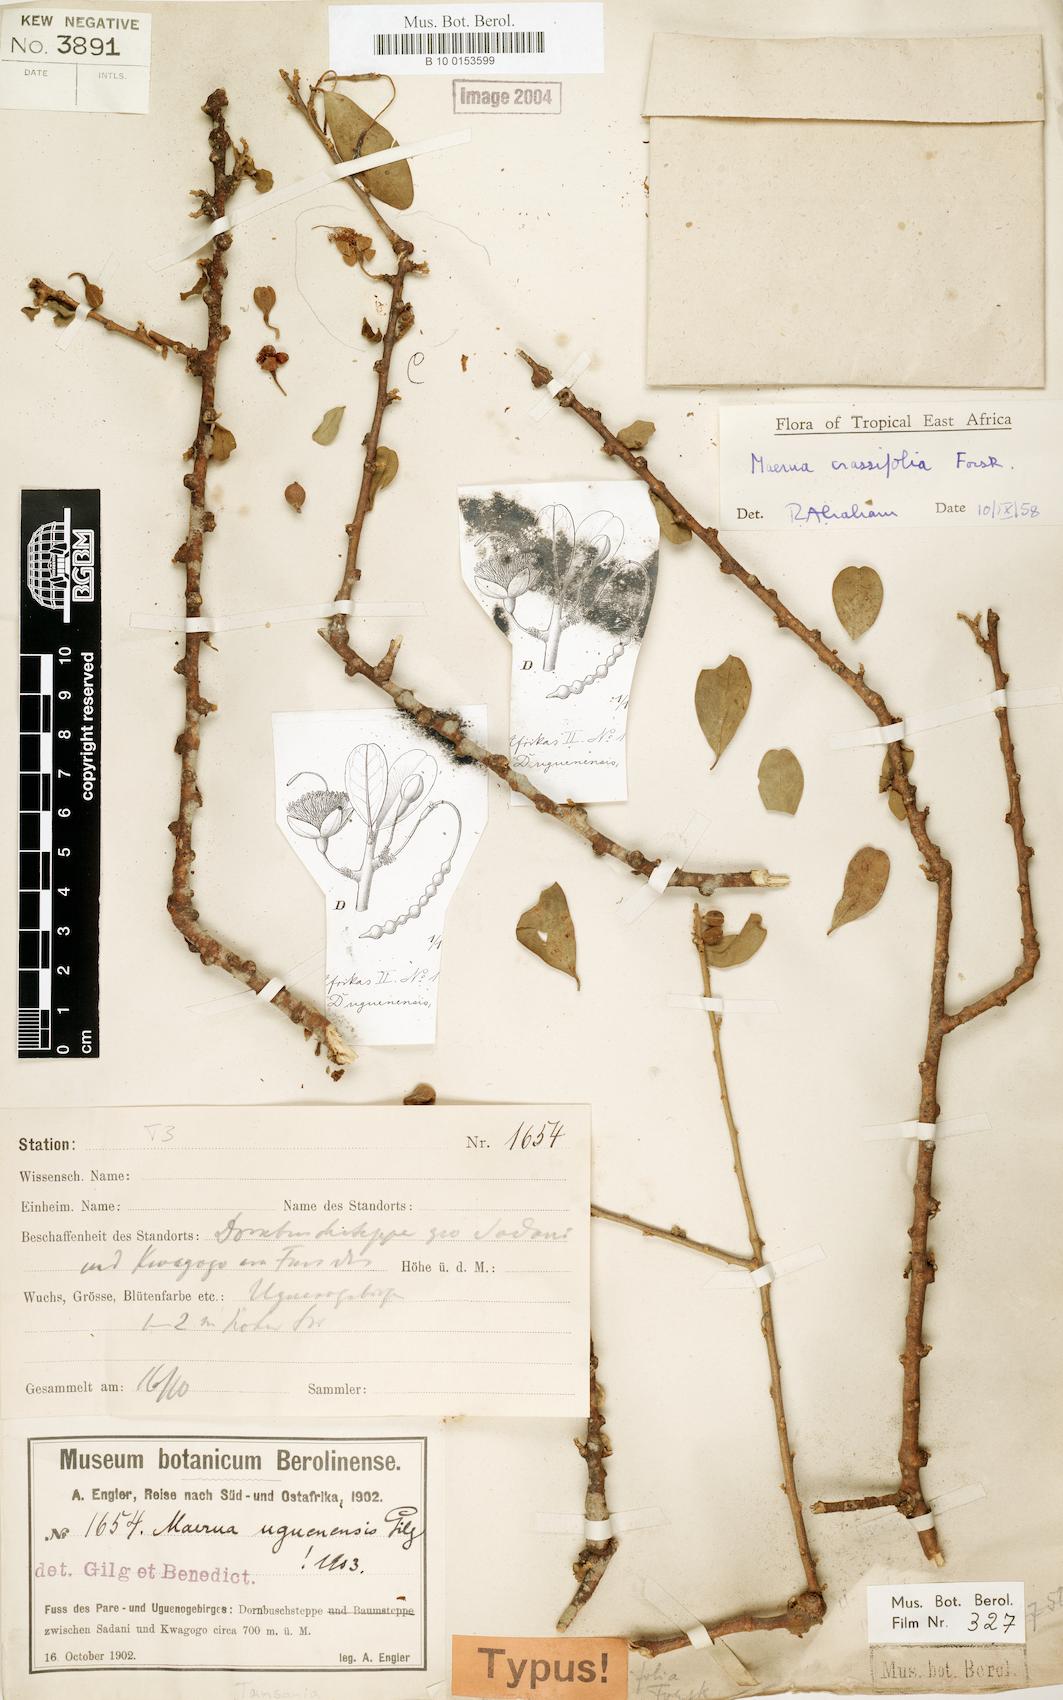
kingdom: Plantae
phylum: Tracheophyta
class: Magnoliopsida
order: Brassicales
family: Capparaceae
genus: Maerua
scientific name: Maerua crassifolia
